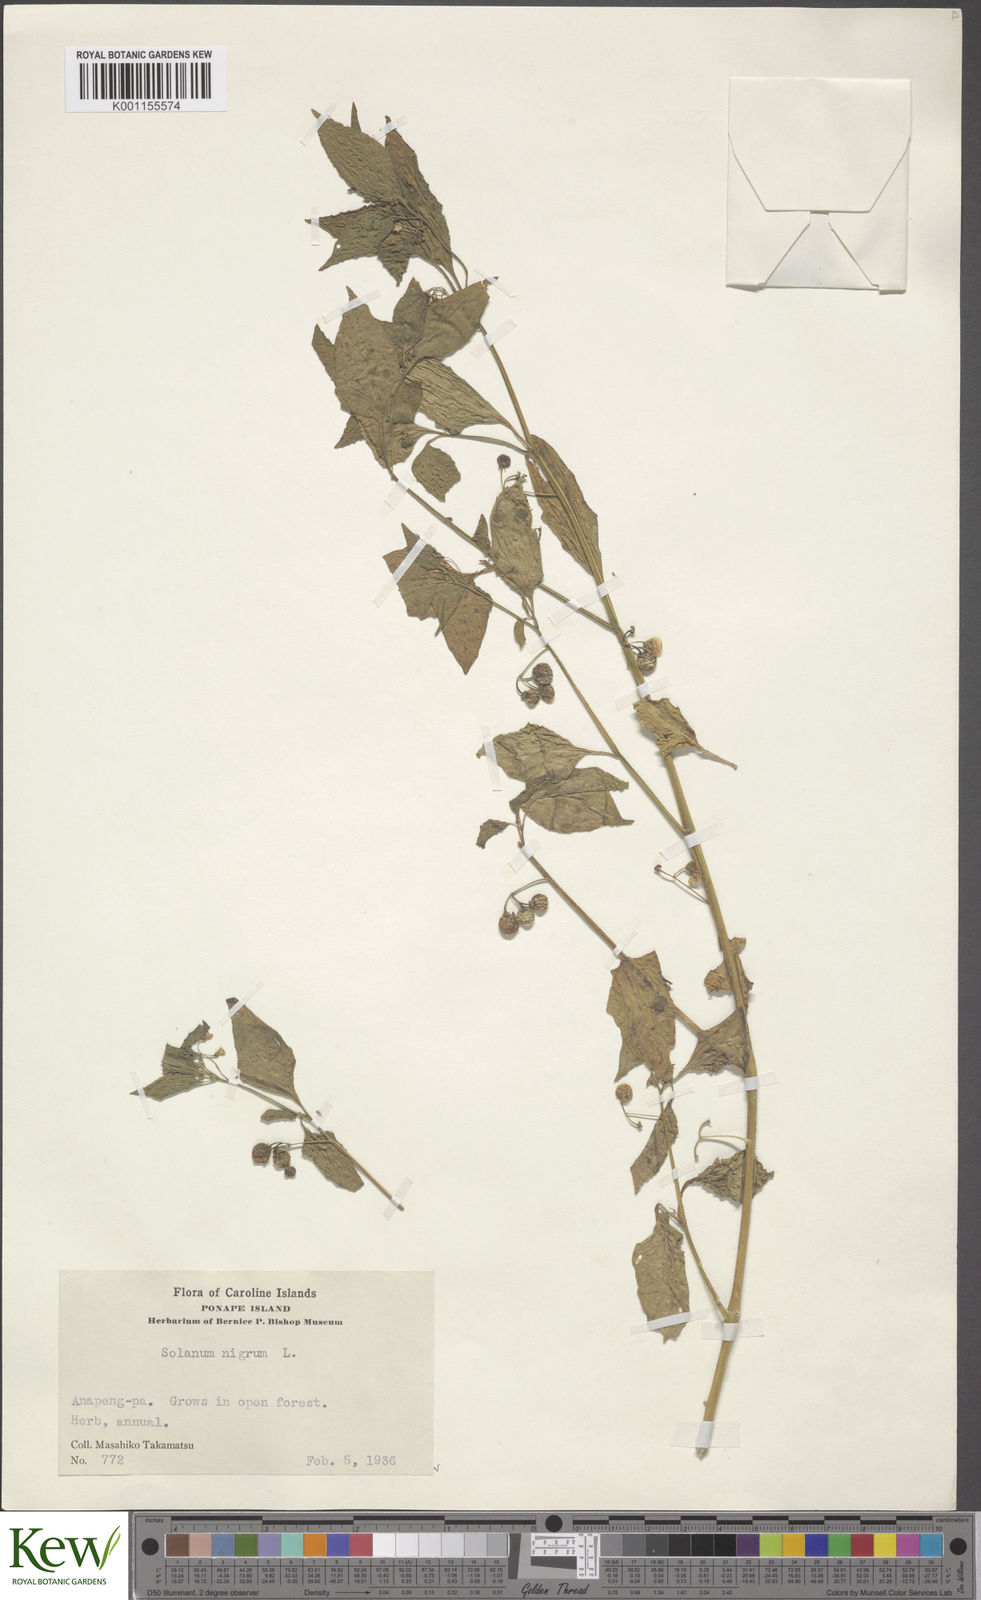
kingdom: Plantae
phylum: Tracheophyta
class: Magnoliopsida
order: Solanales
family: Solanaceae
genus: Solanum
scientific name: Solanum americanum
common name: American black nightshade
